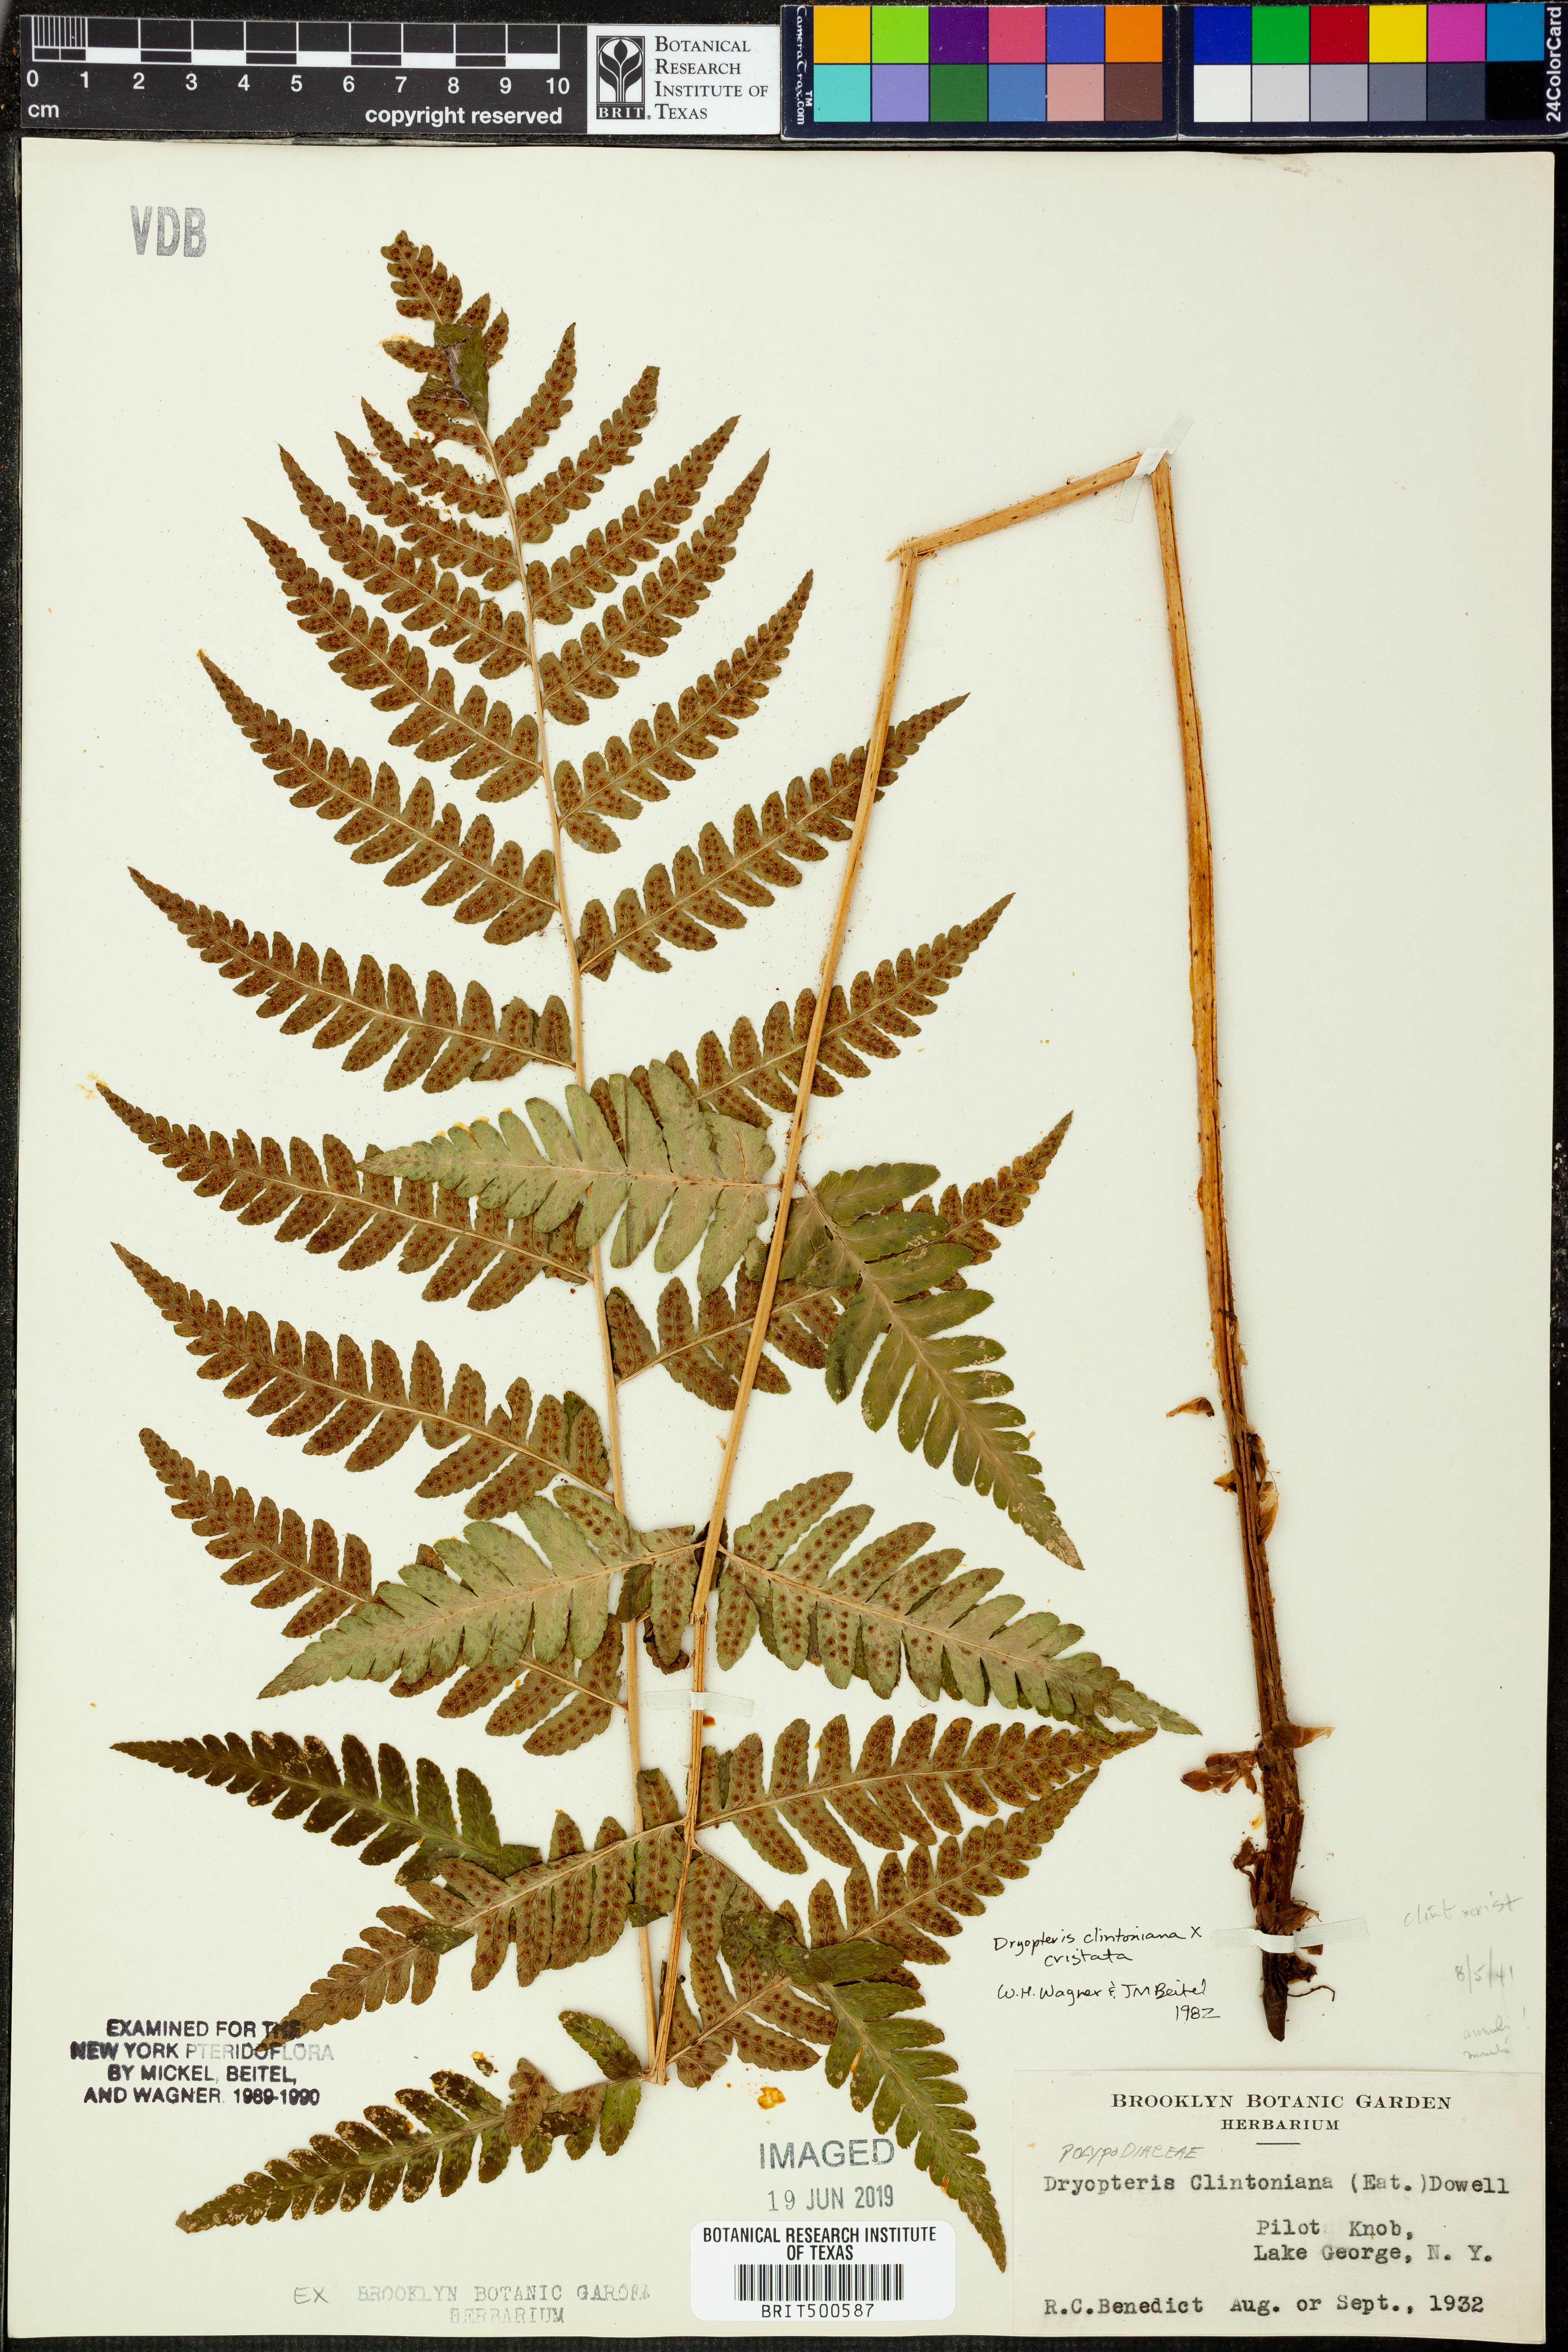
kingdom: Plantae
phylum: Tracheophyta
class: Polypodiopsida
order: Polypodiales
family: Dryopteridaceae
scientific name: Dryopteridaceae
